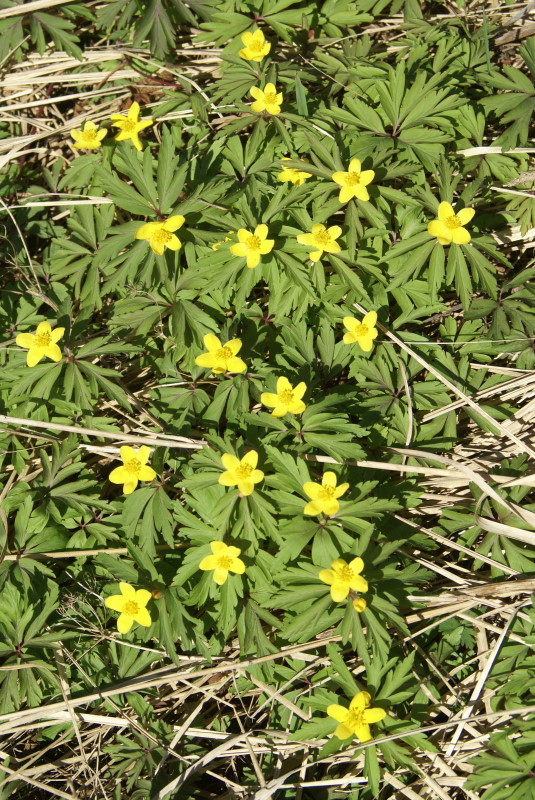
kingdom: Plantae
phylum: Tracheophyta
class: Magnoliopsida
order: Ranunculales
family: Ranunculaceae
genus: Anemone
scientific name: Anemone ranunculoides
